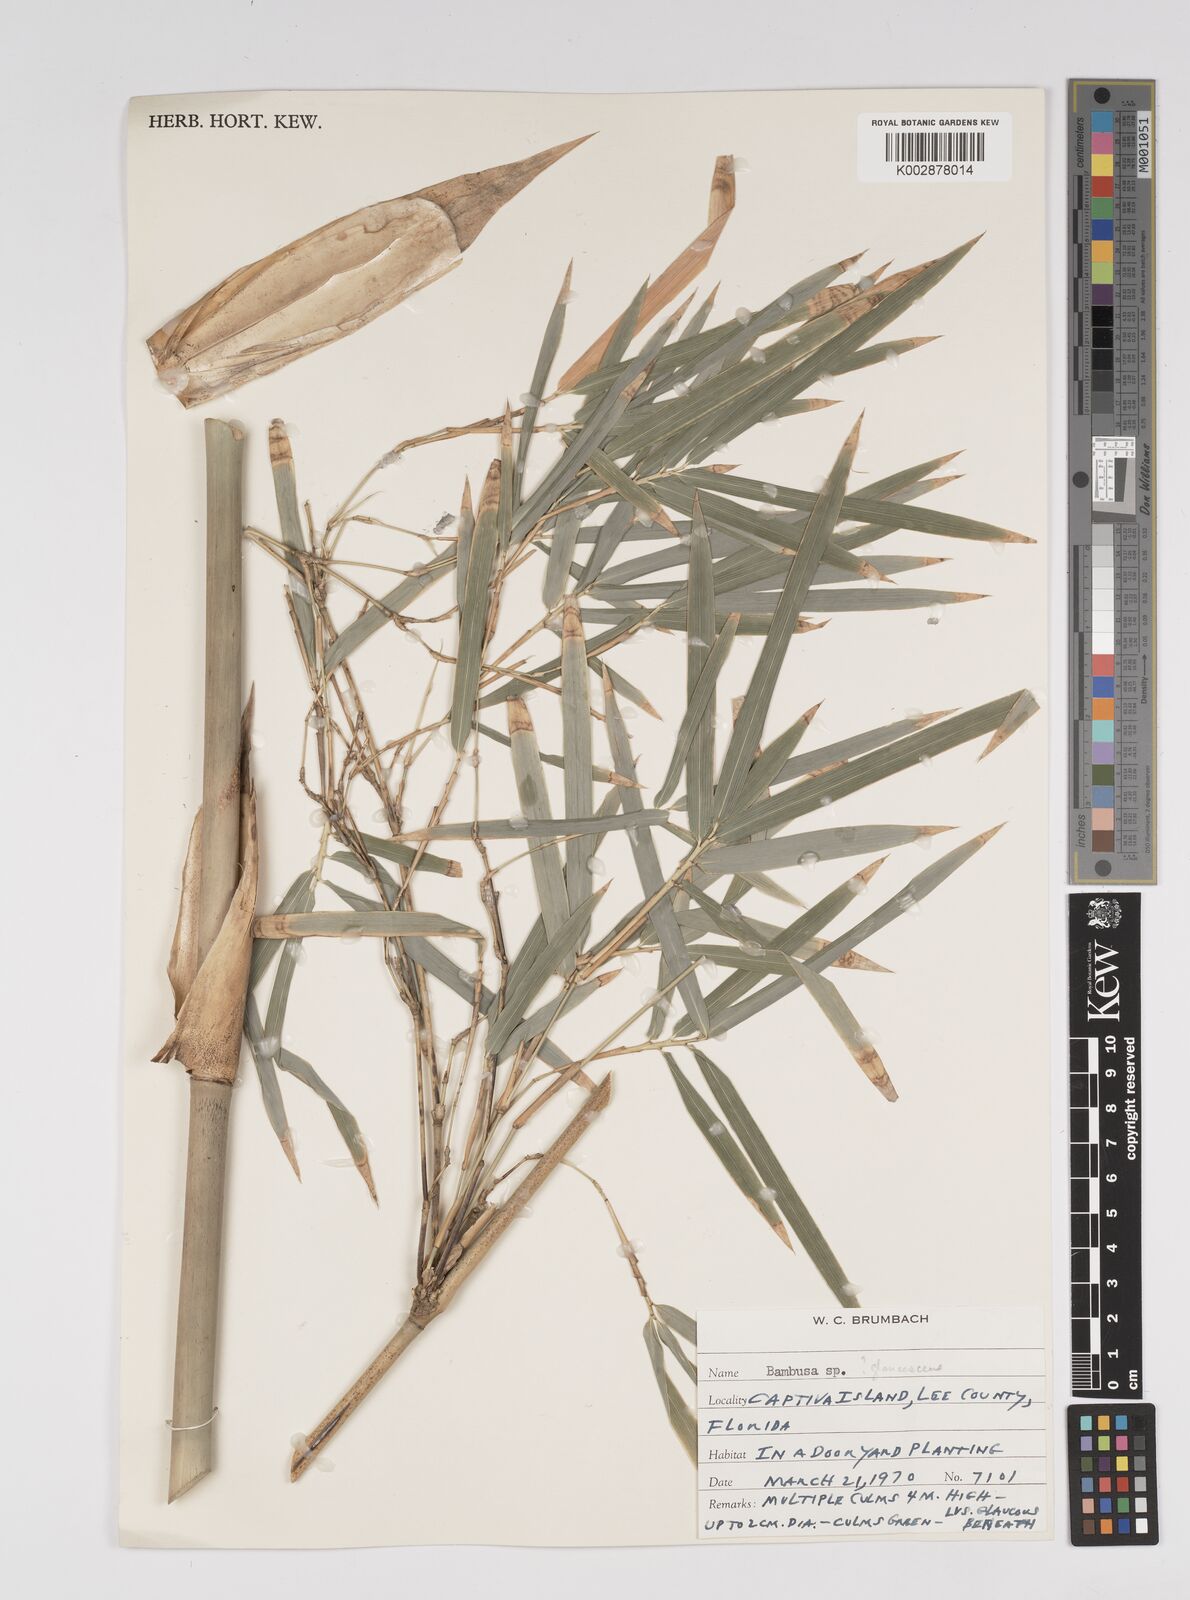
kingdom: Plantae
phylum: Tracheophyta
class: Liliopsida
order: Poales
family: Poaceae
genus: Bambusa
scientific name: Bambusa
